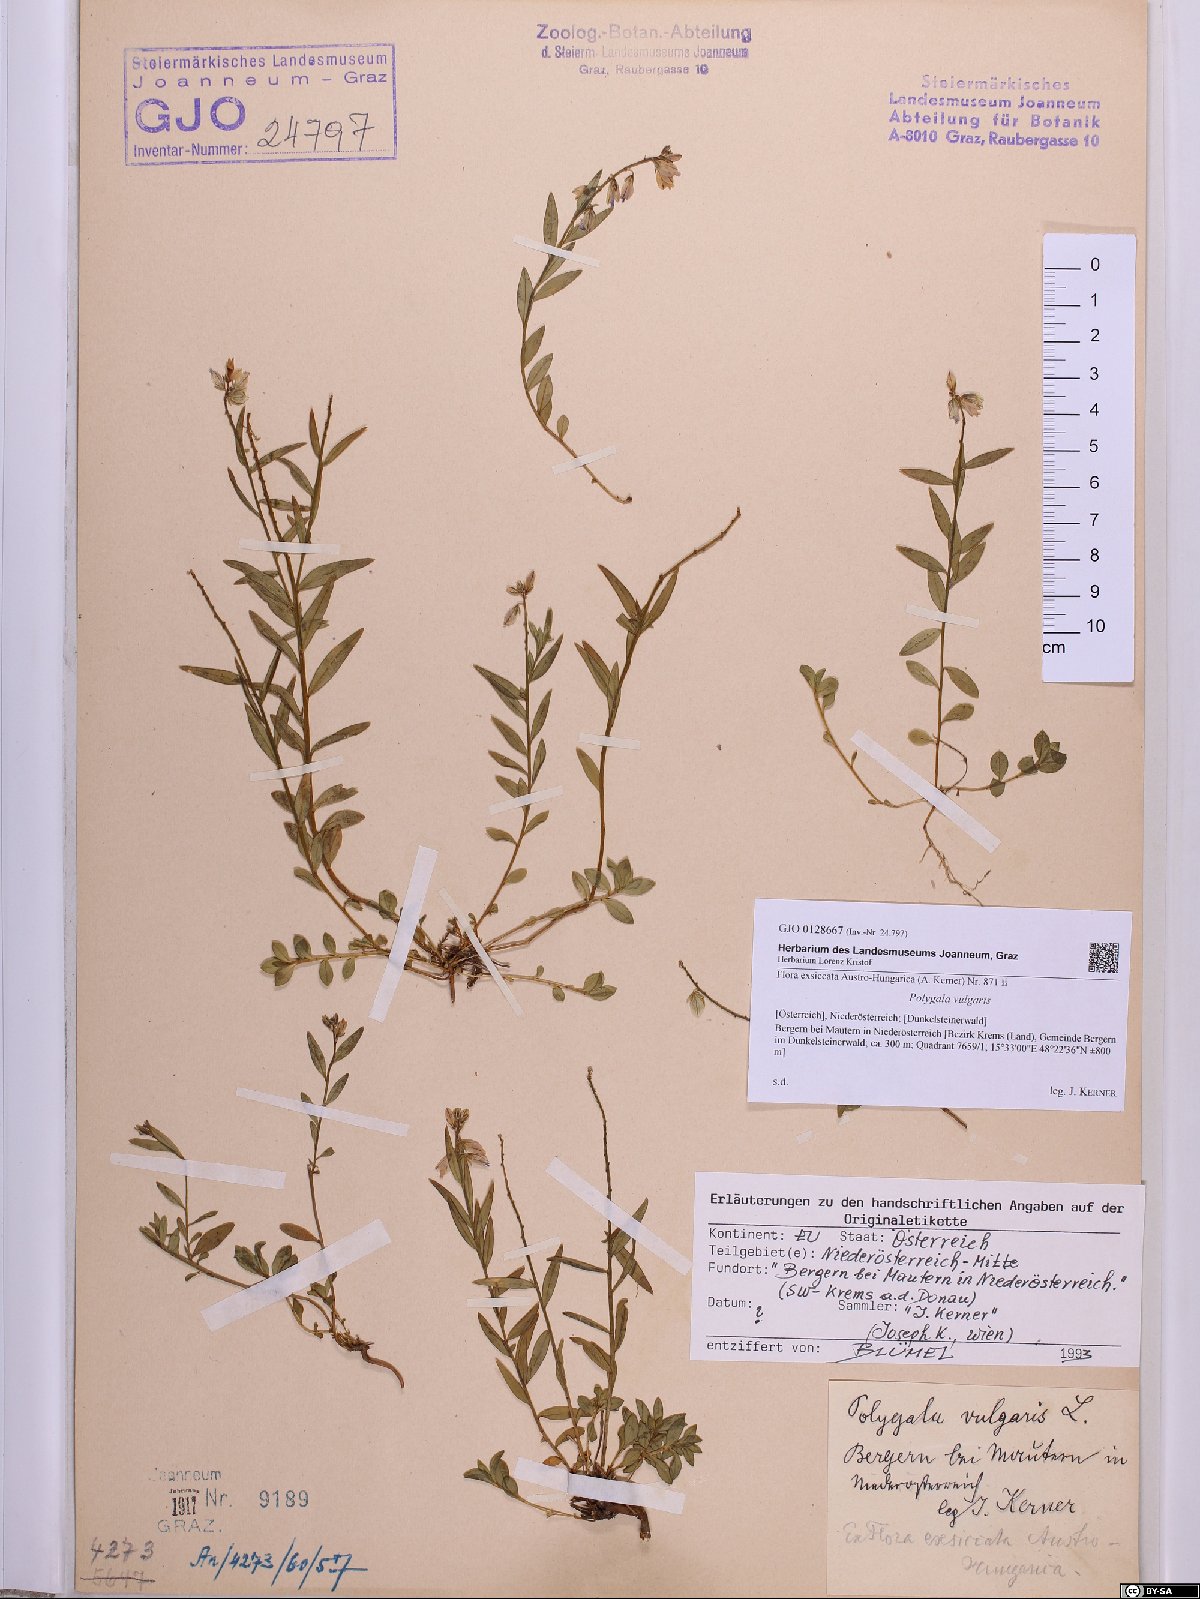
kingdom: Plantae
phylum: Tracheophyta
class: Magnoliopsida
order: Fabales
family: Polygalaceae
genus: Polygala
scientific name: Polygala vulgaris
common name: Common milkwort
